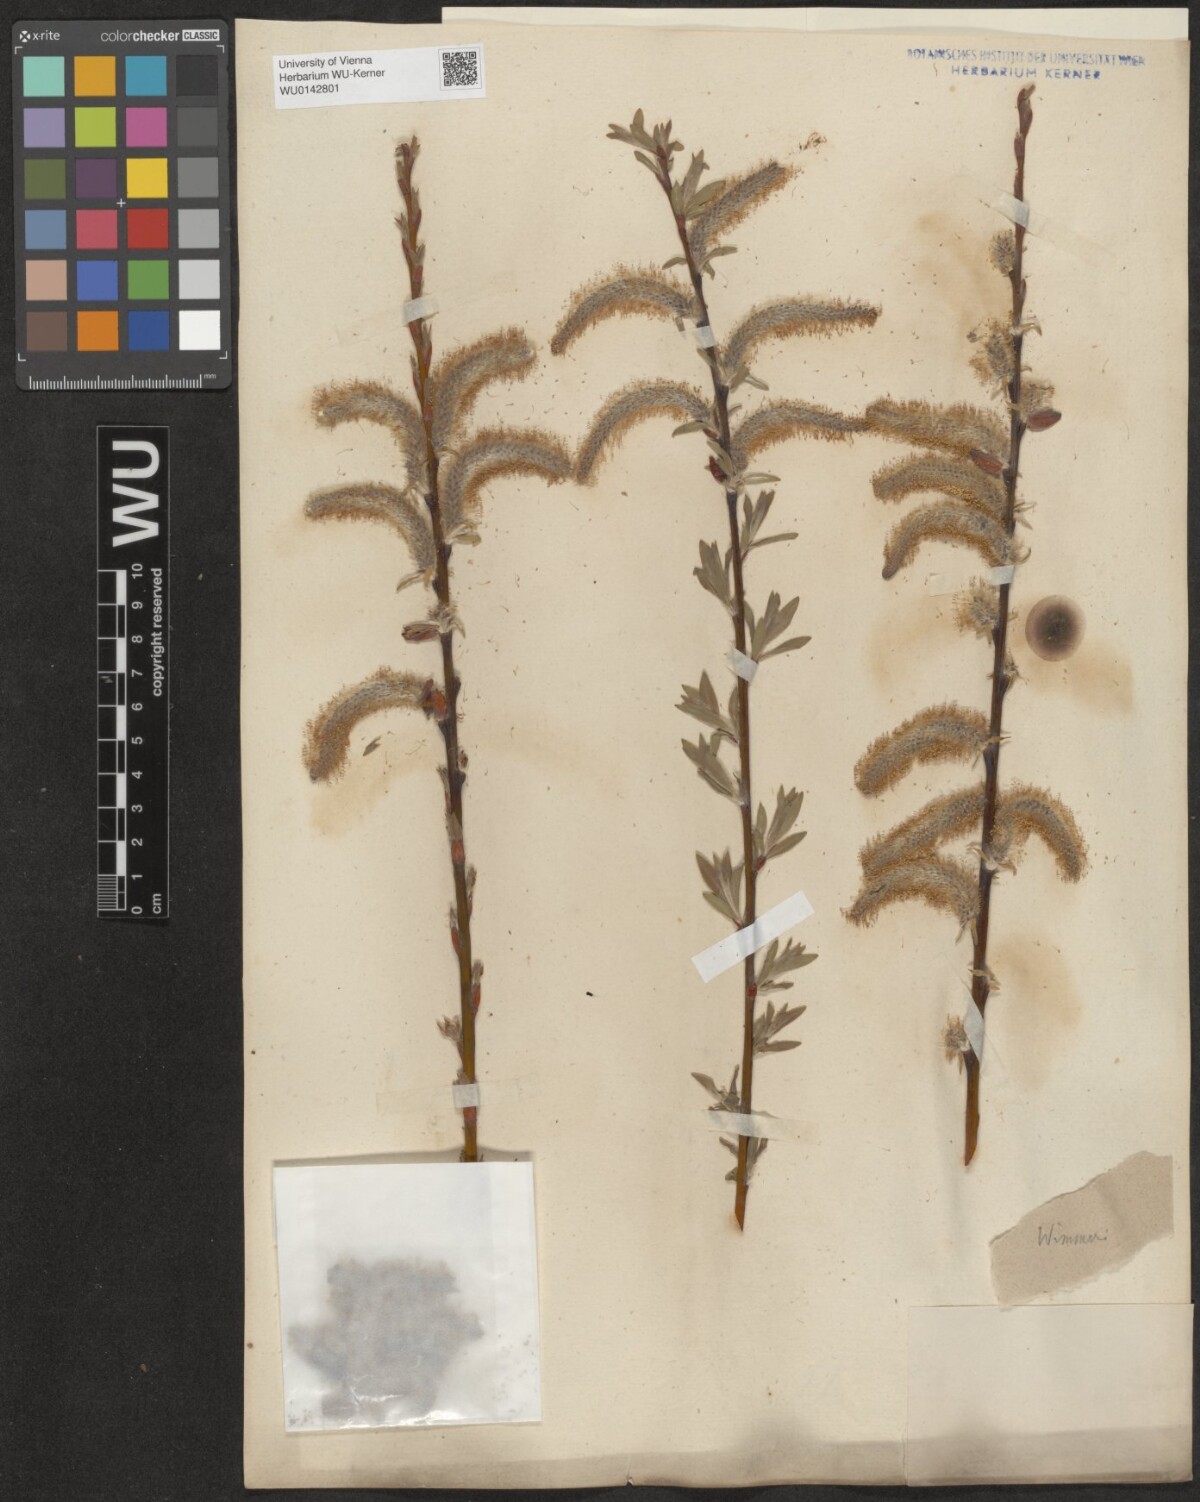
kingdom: Plantae
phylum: Tracheophyta
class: Magnoliopsida
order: Malpighiales
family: Salicaceae
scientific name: Salicaceae
